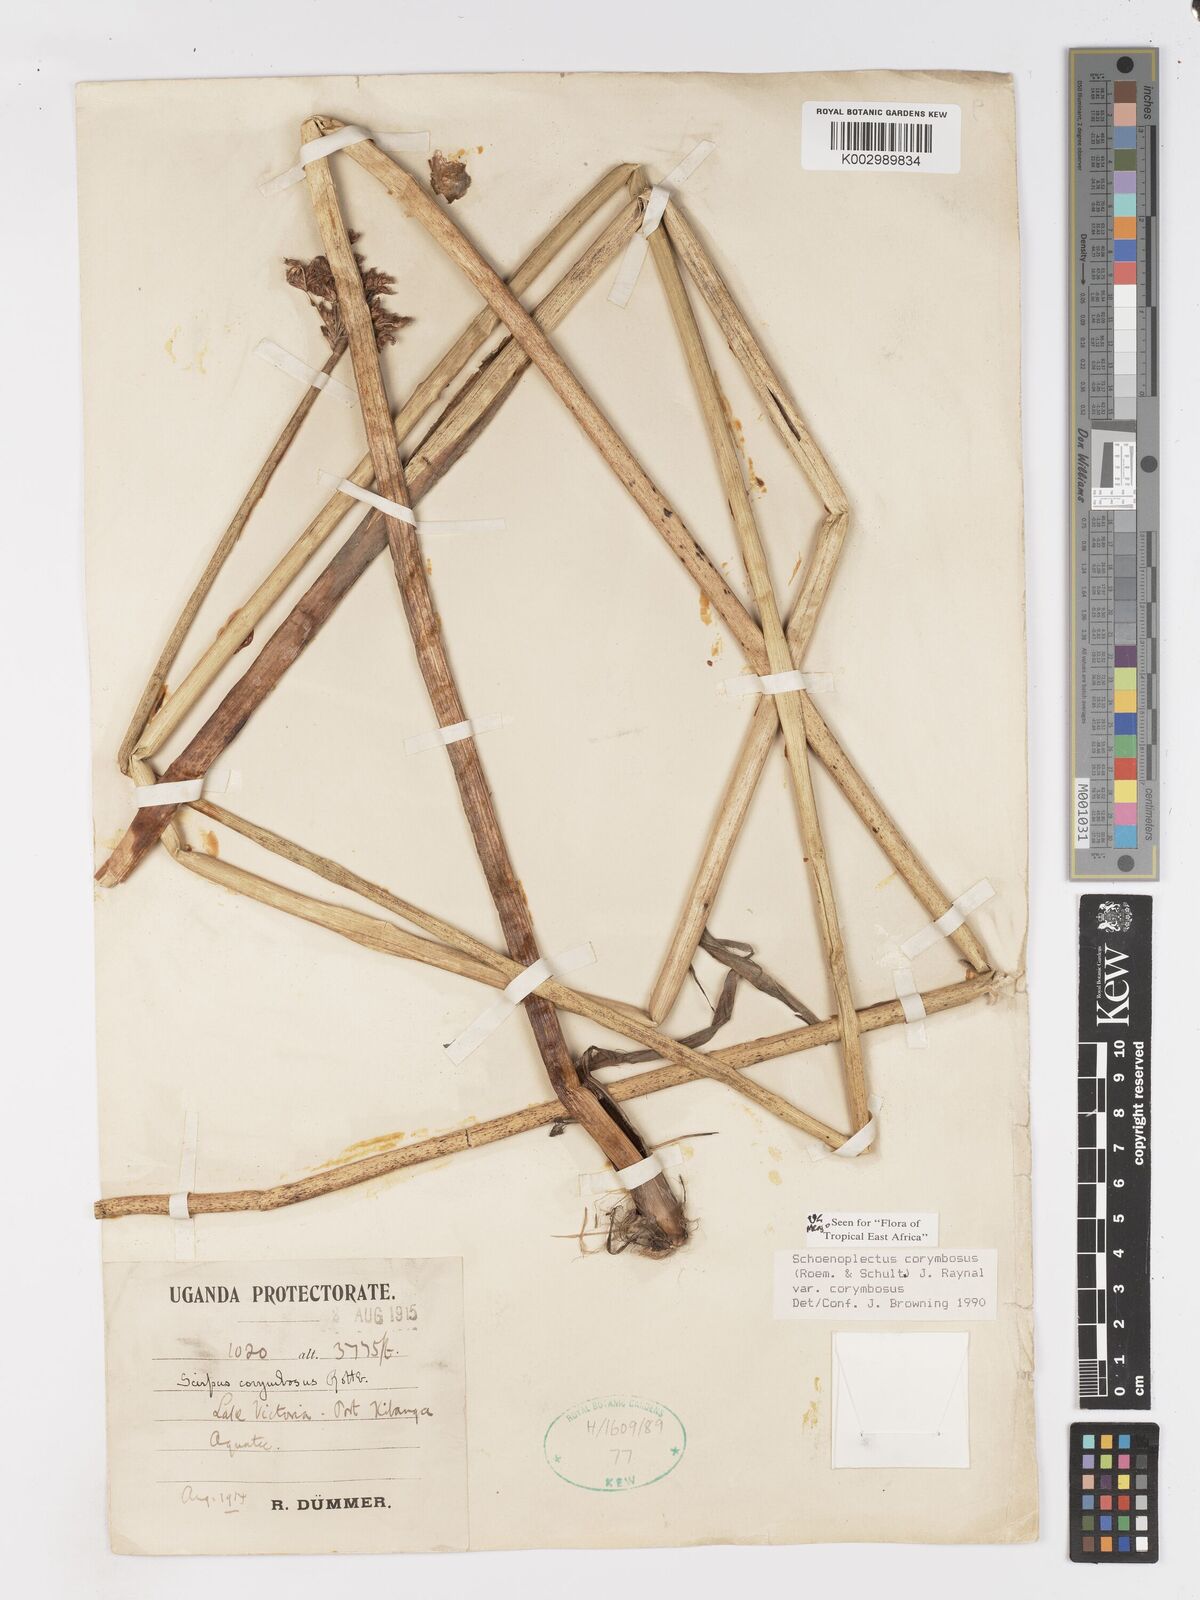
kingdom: Plantae
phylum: Tracheophyta
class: Liliopsida
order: Poales
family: Cyperaceae
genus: Schoenoplectiella
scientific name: Schoenoplectiella corymbosa
